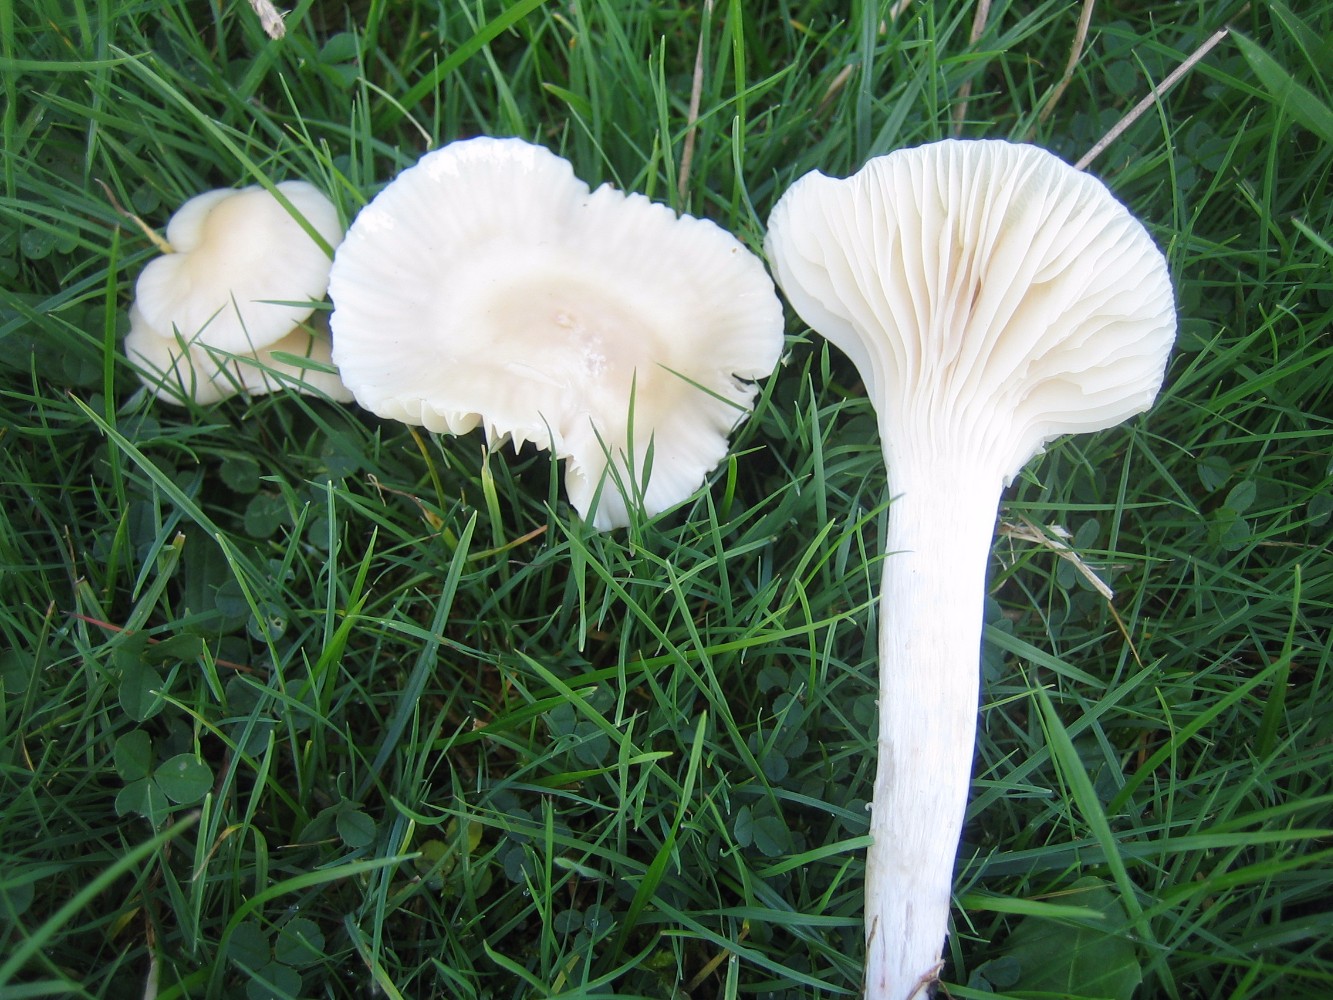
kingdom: Fungi
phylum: Basidiomycota
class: Agaricomycetes
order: Agaricales
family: Hygrophoraceae
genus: Cuphophyllus
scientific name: Cuphophyllus virgineus
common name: snehvid vokshat
